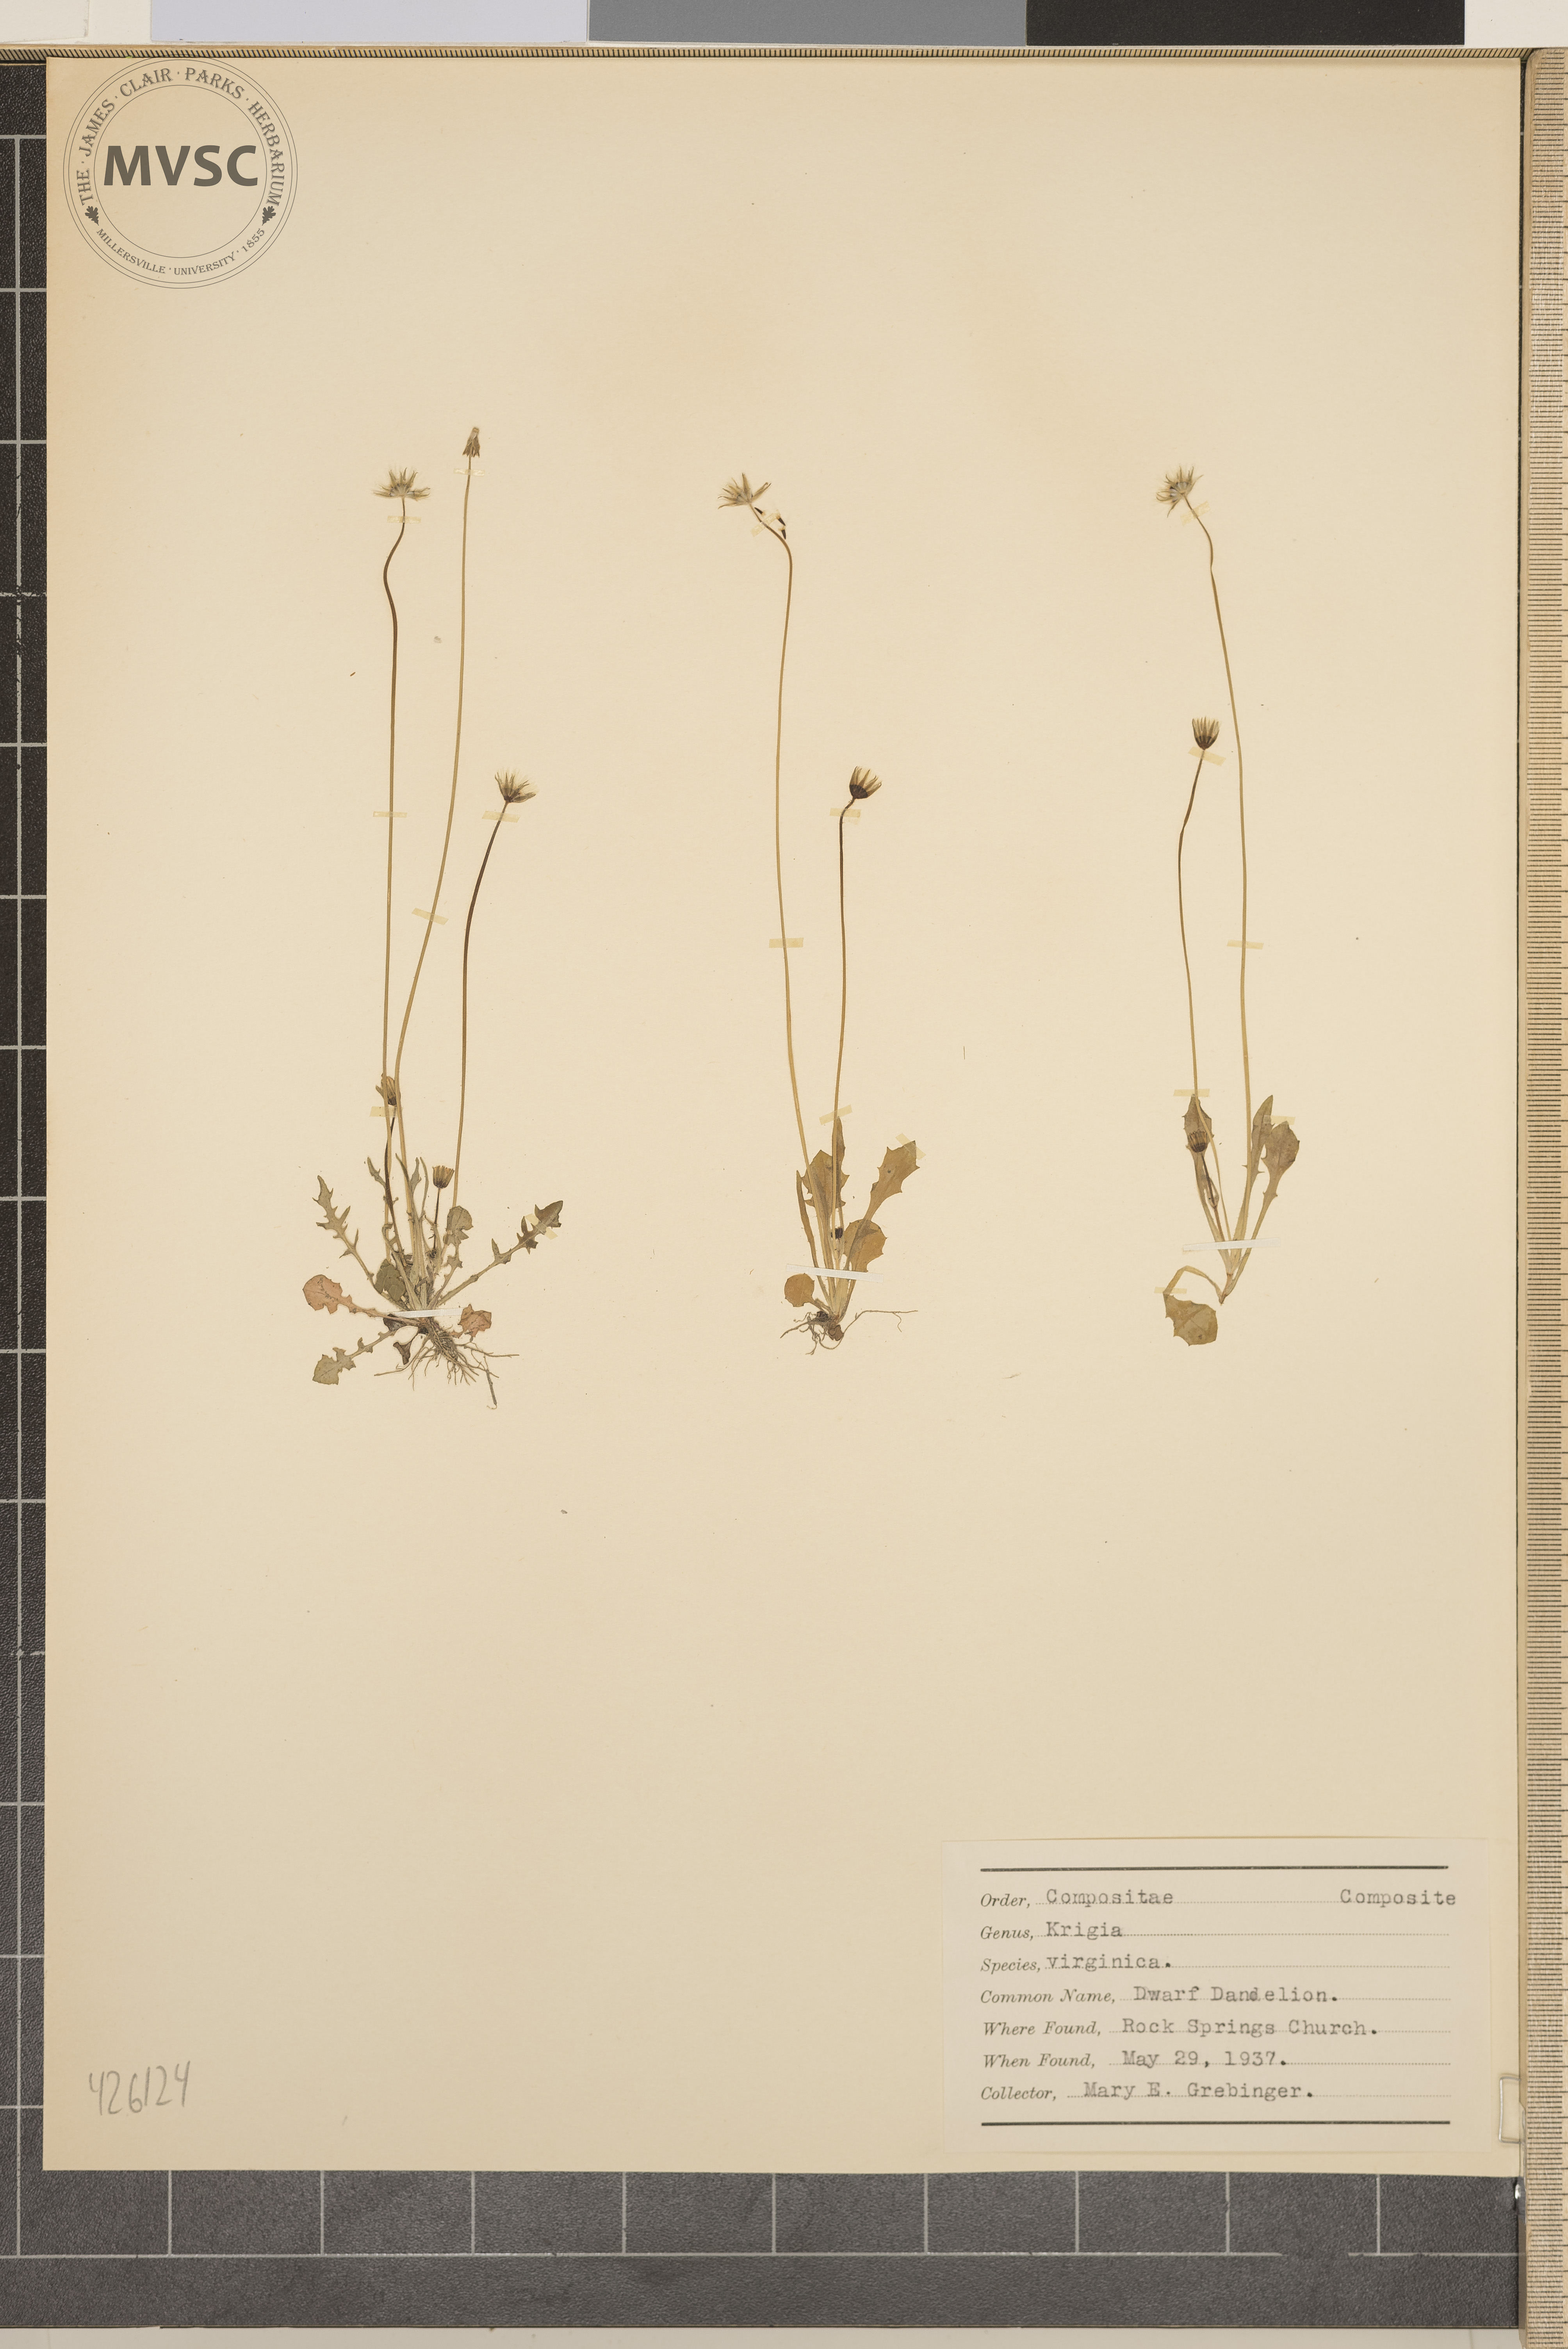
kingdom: Plantae
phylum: Tracheophyta
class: Magnoliopsida
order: Asterales
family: Asteraceae
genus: Krigia
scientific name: Krigia virginica
